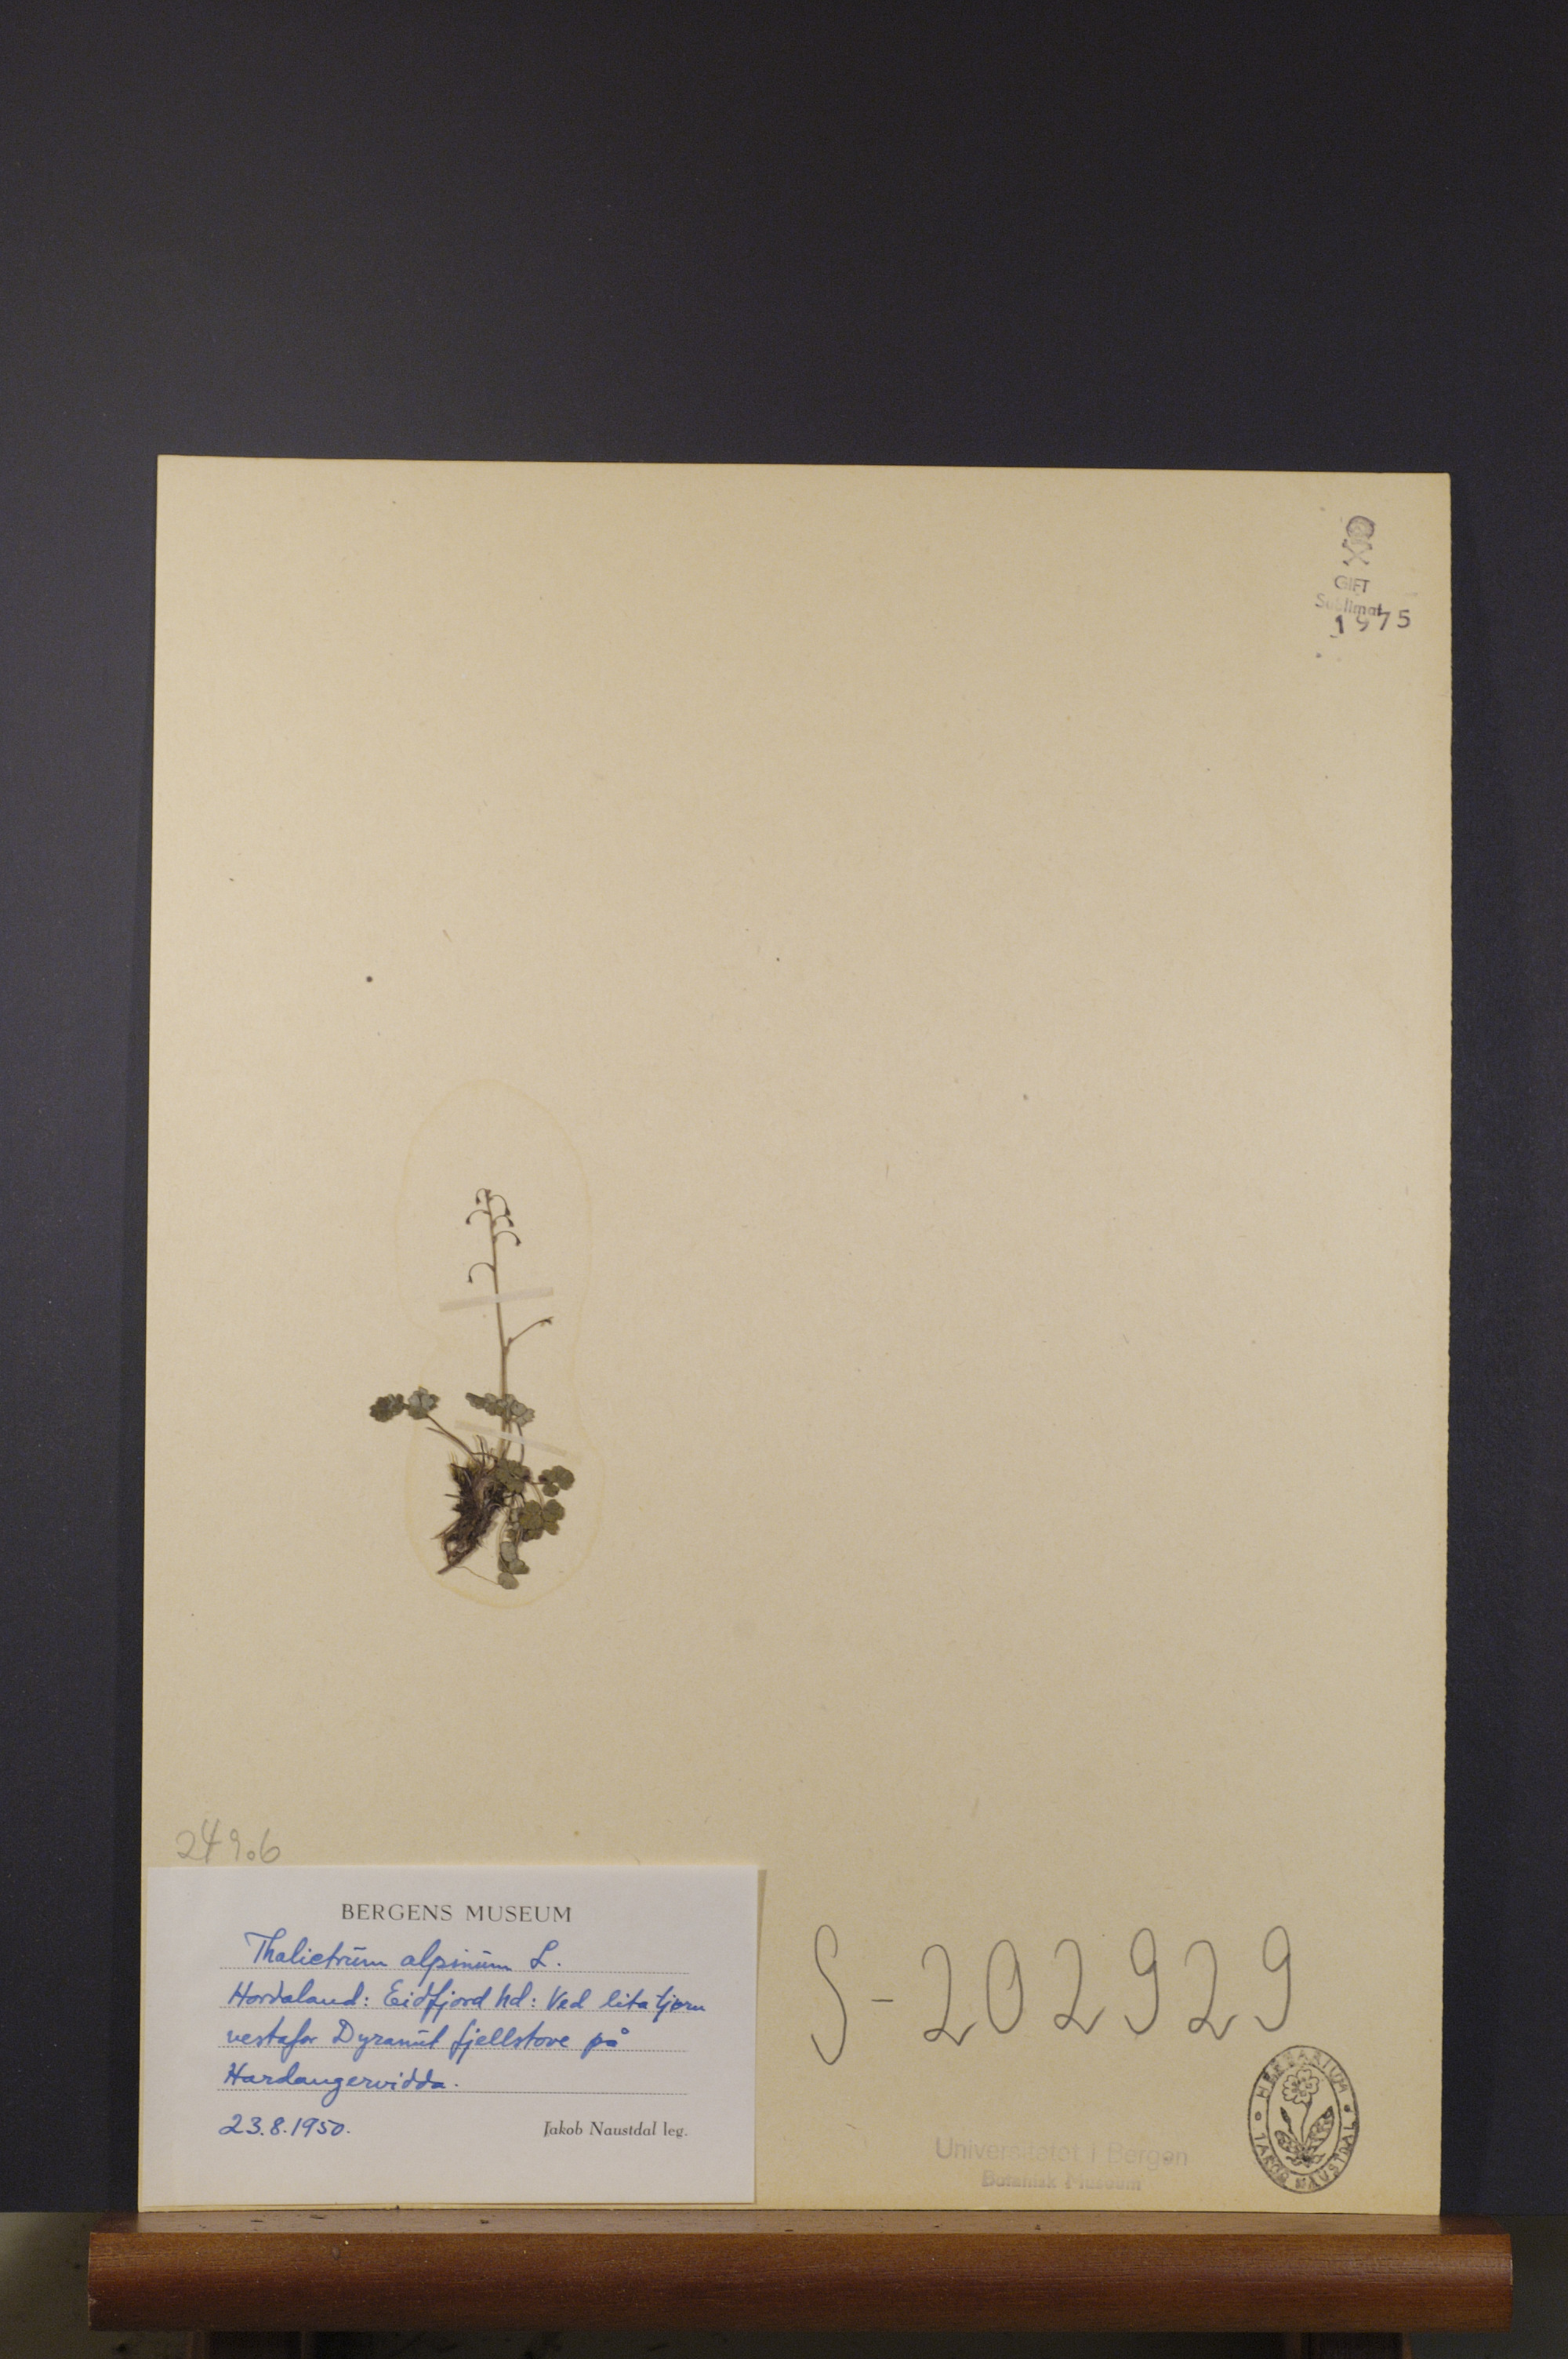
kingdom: Plantae
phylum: Tracheophyta
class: Magnoliopsida
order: Ranunculales
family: Ranunculaceae
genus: Thalictrum
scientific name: Thalictrum alpinum
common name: Alpine meadow-rue
